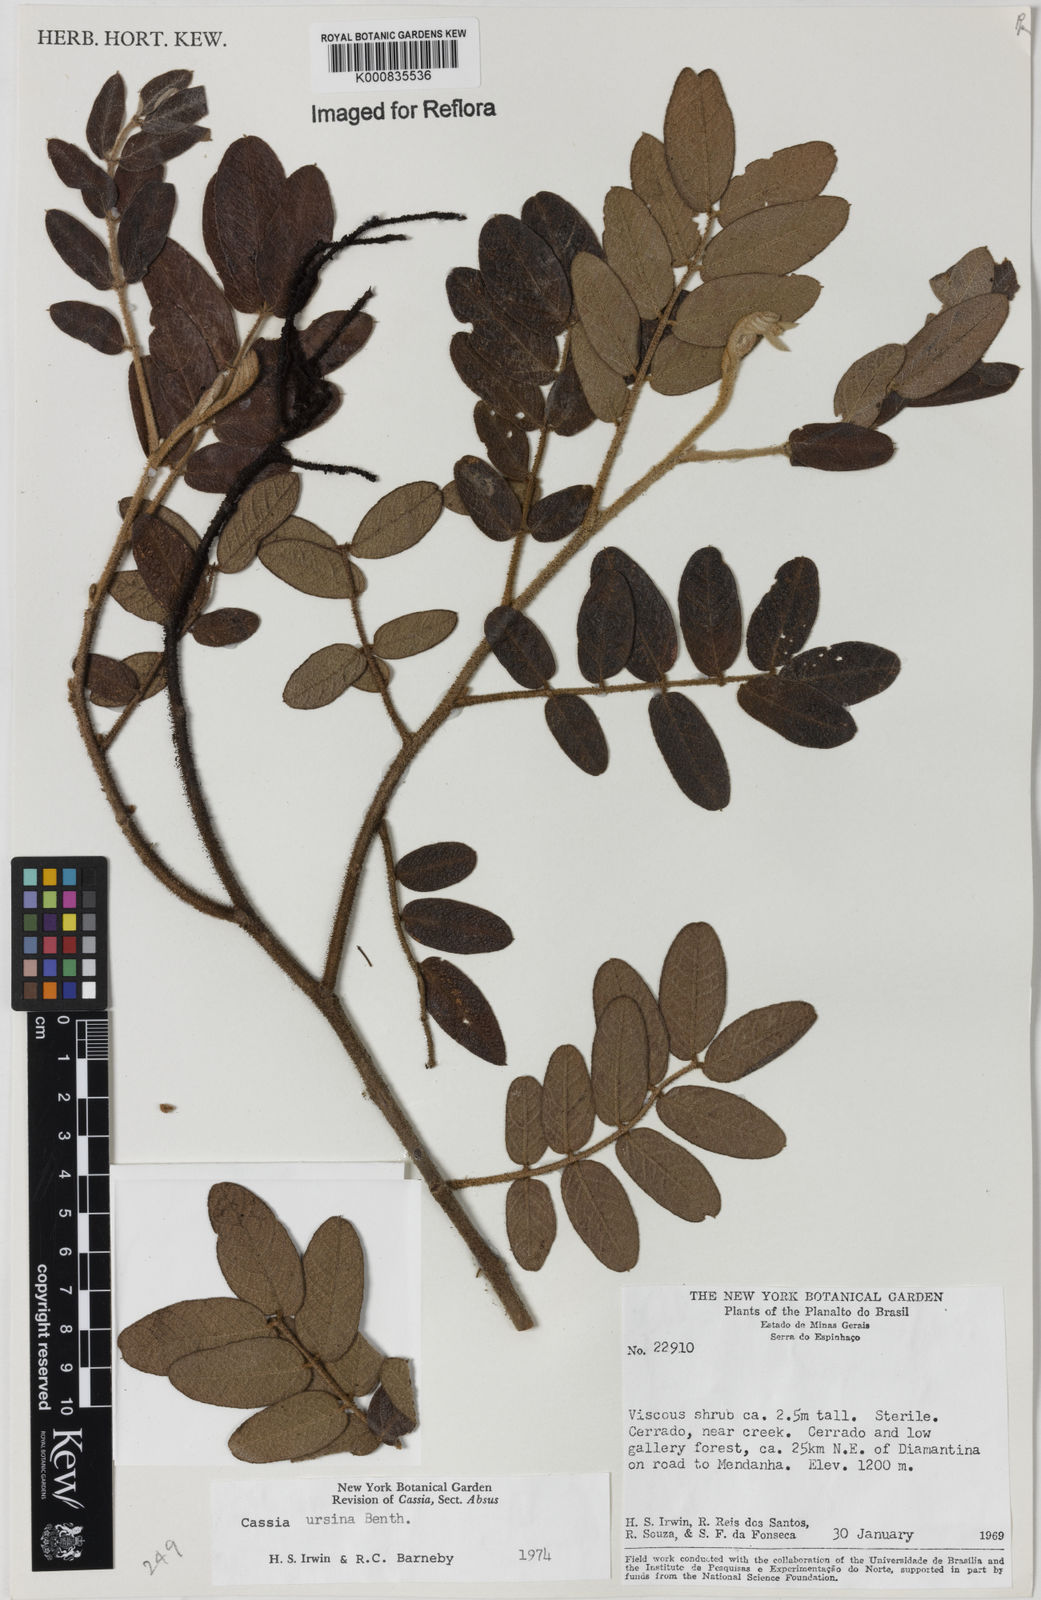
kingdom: Plantae
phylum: Tracheophyta
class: Magnoliopsida
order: Fabales
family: Fabaceae
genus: Chamaecrista
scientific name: Chamaecrista ursina
